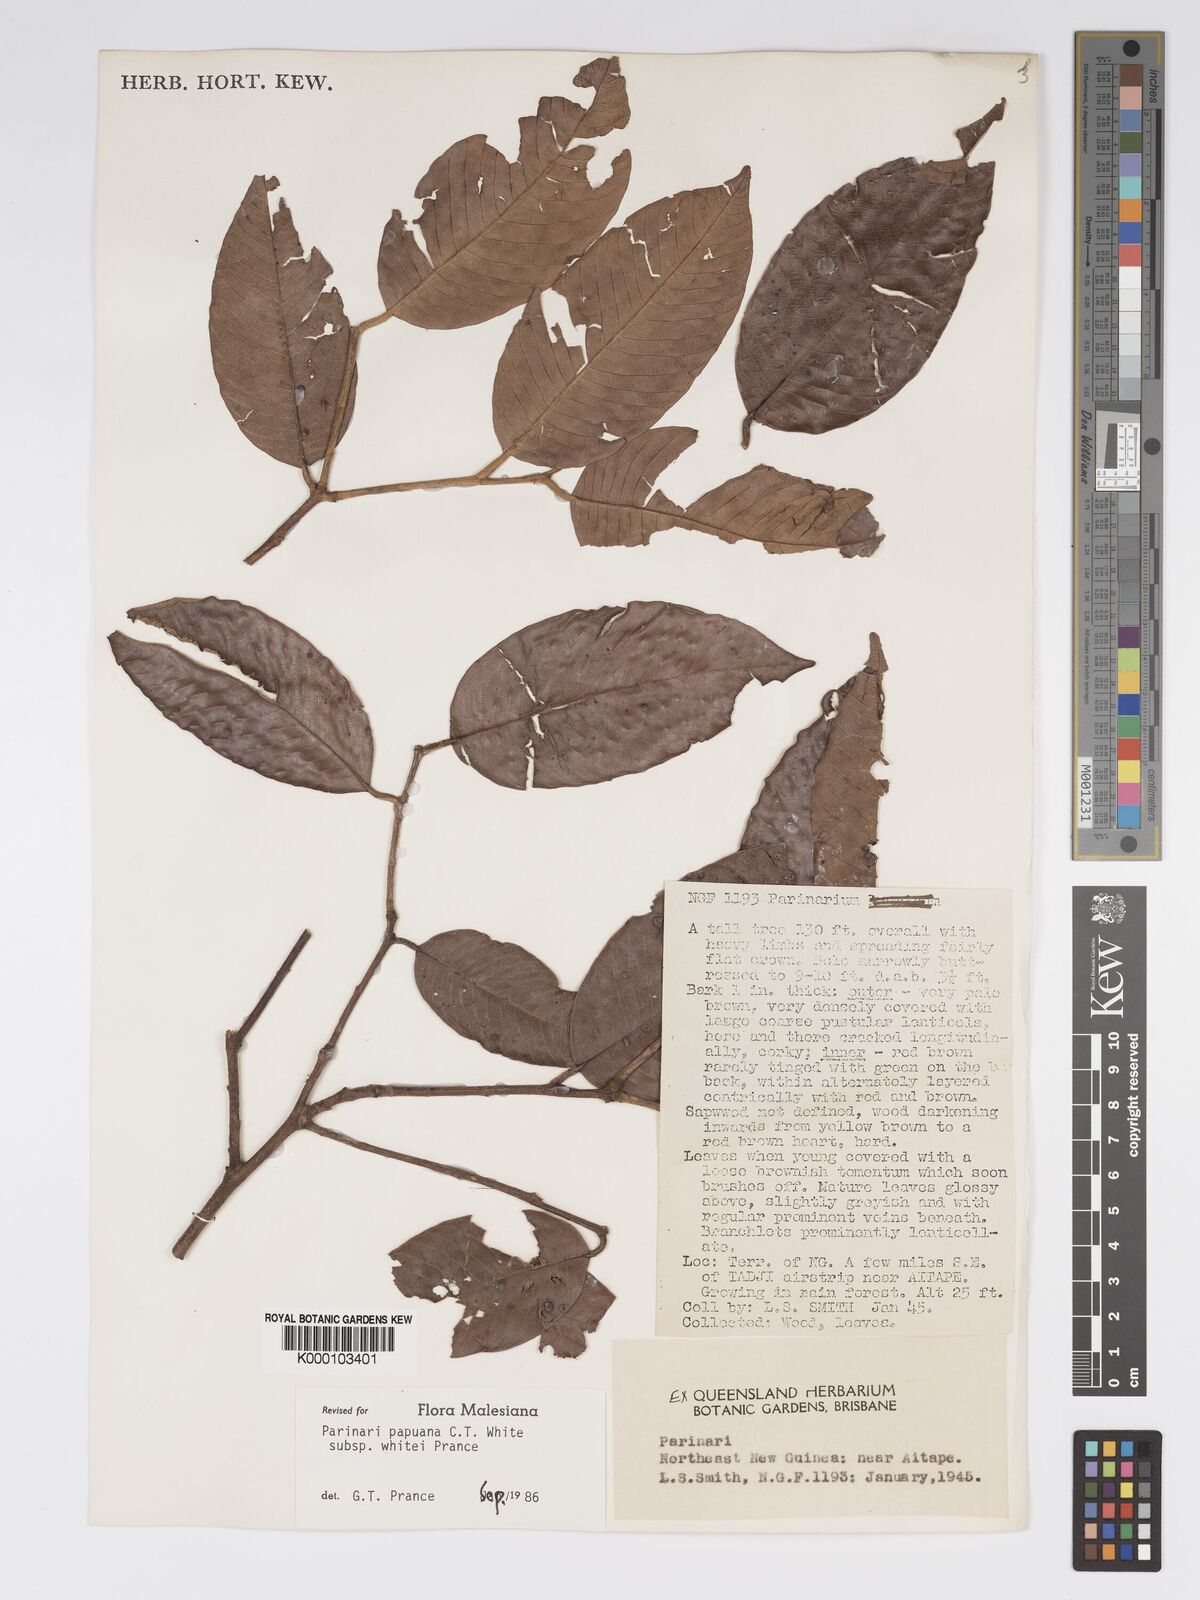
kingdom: Plantae
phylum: Tracheophyta
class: Magnoliopsida
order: Malpighiales
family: Chrysobalanaceae
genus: Parinari
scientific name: Parinari papuana
